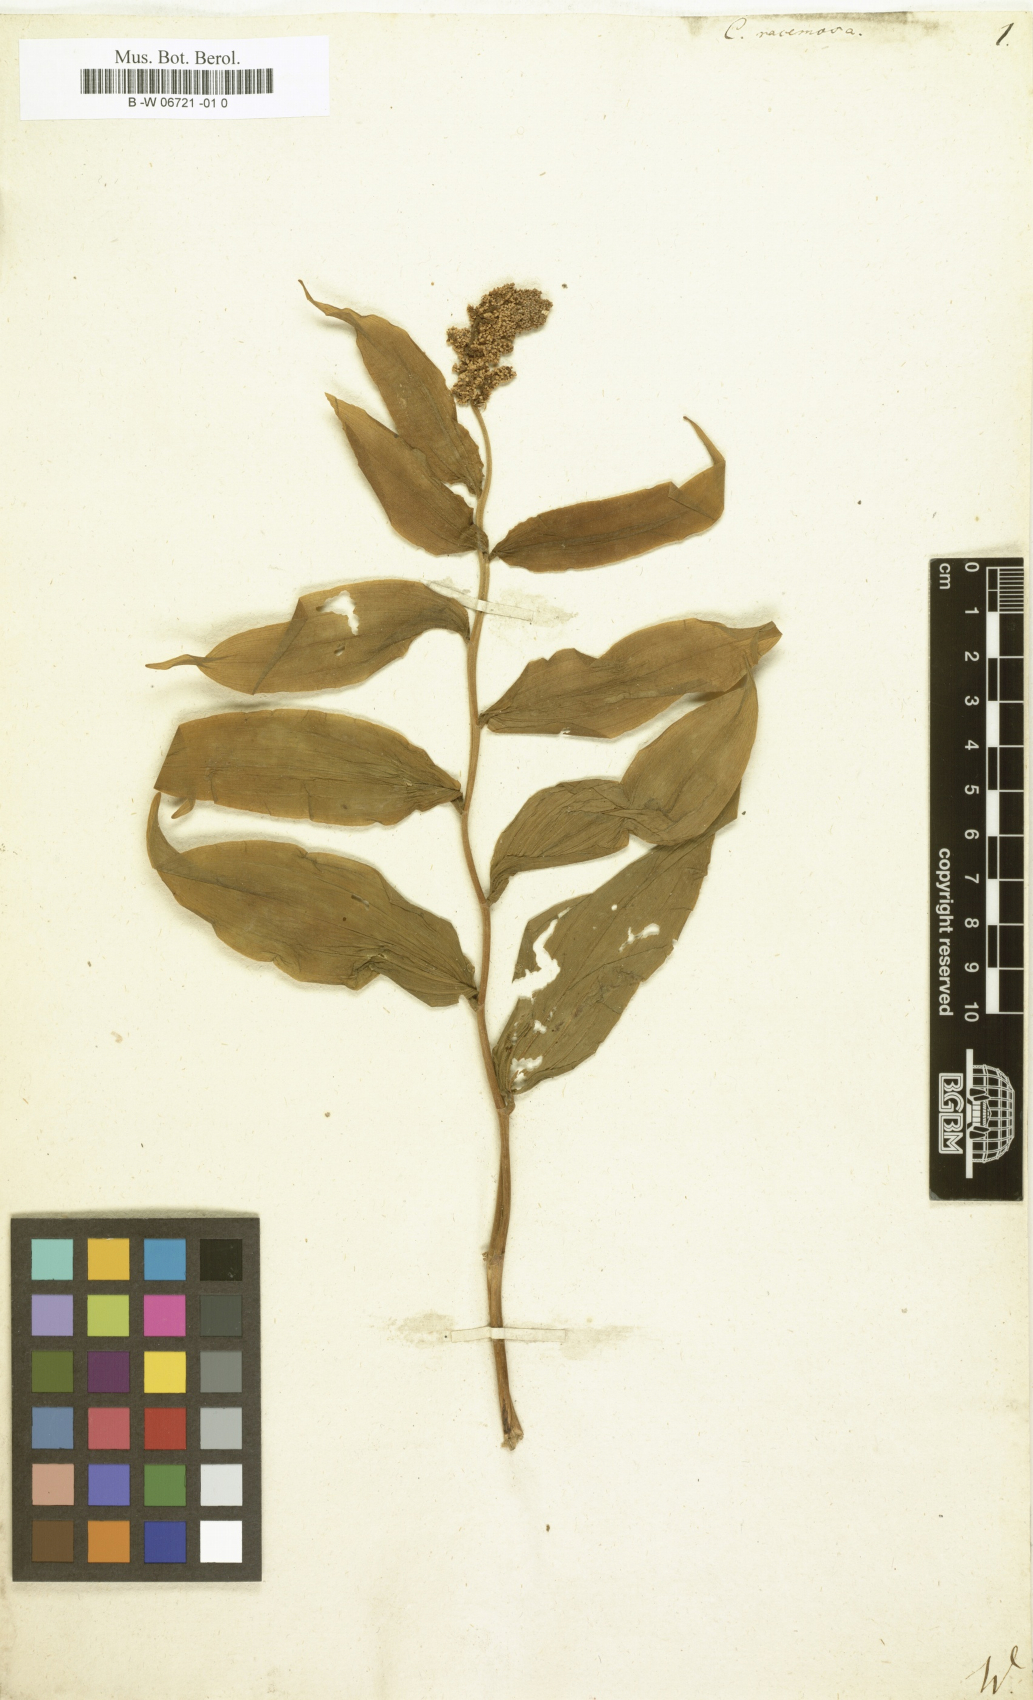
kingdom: Plantae
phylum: Tracheophyta
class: Liliopsida
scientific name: Liliopsida
